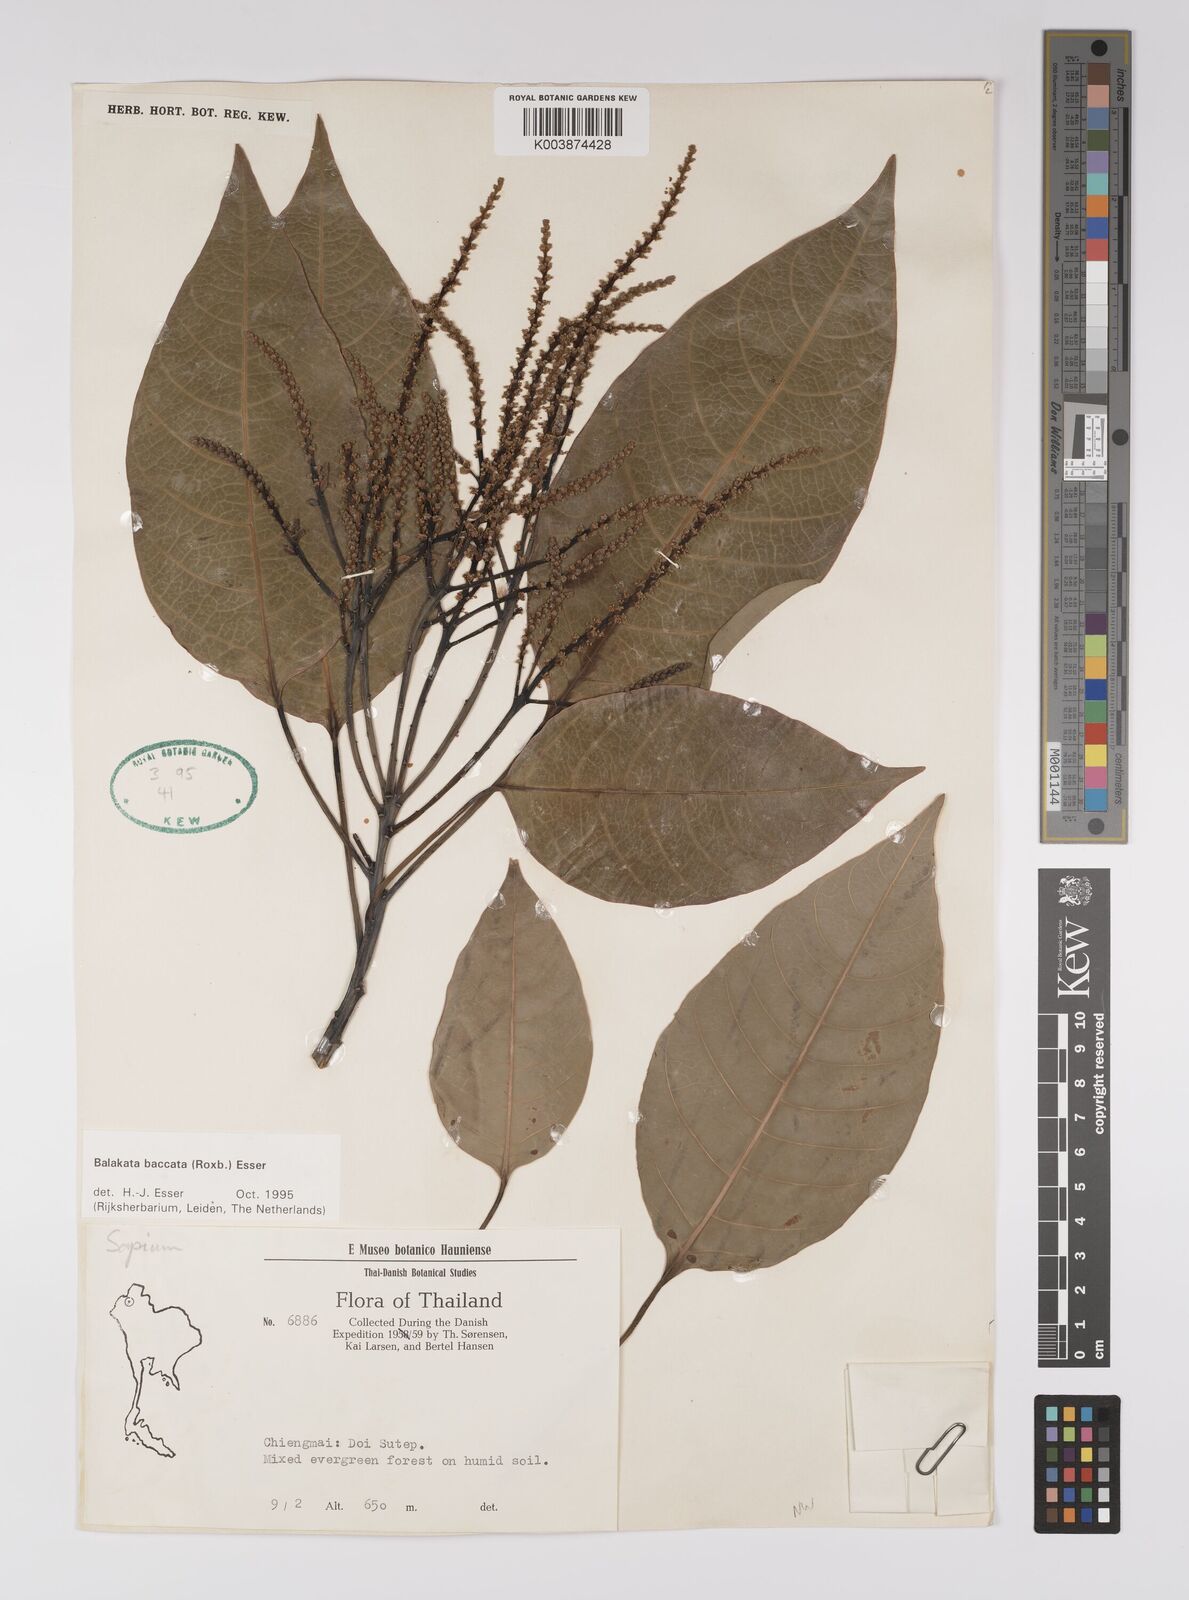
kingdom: Plantae
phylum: Tracheophyta
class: Magnoliopsida
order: Malpighiales
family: Euphorbiaceae
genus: Balakata
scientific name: Balakata baccata
